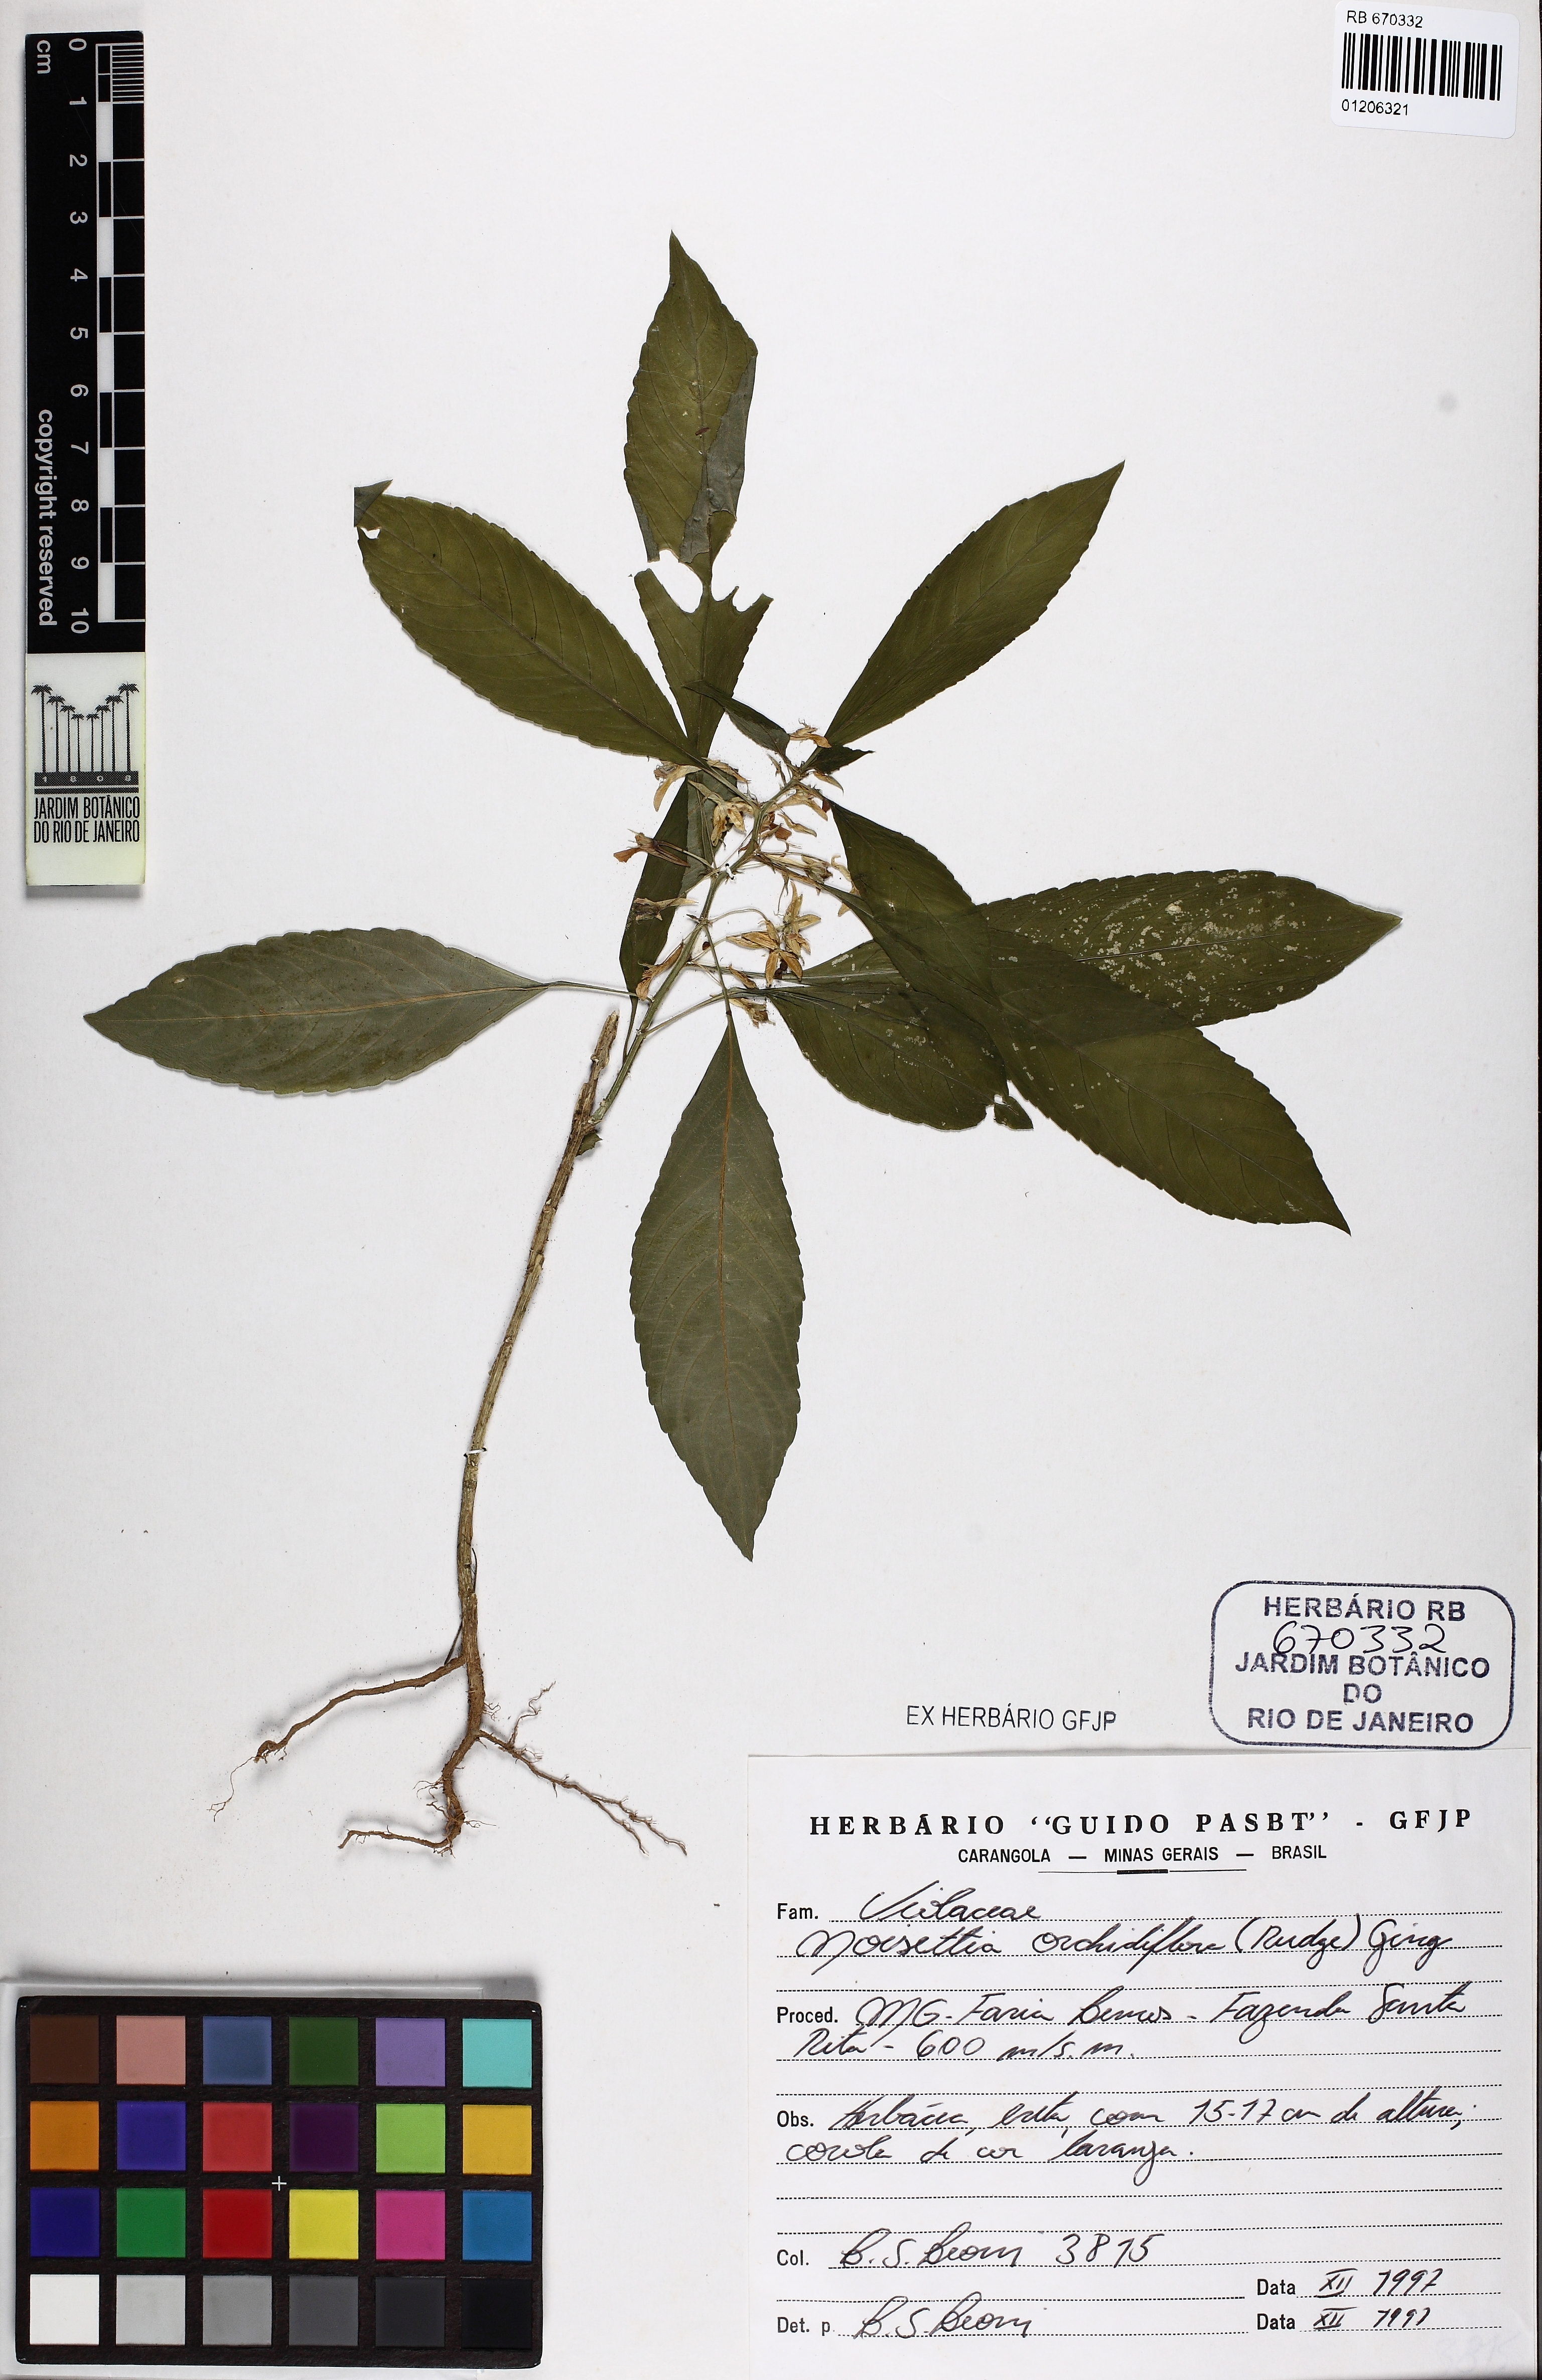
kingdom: Plantae
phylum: Tracheophyta
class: Magnoliopsida
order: Malpighiales
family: Violaceae
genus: Noisettia
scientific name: Noisettia orchidiflora
